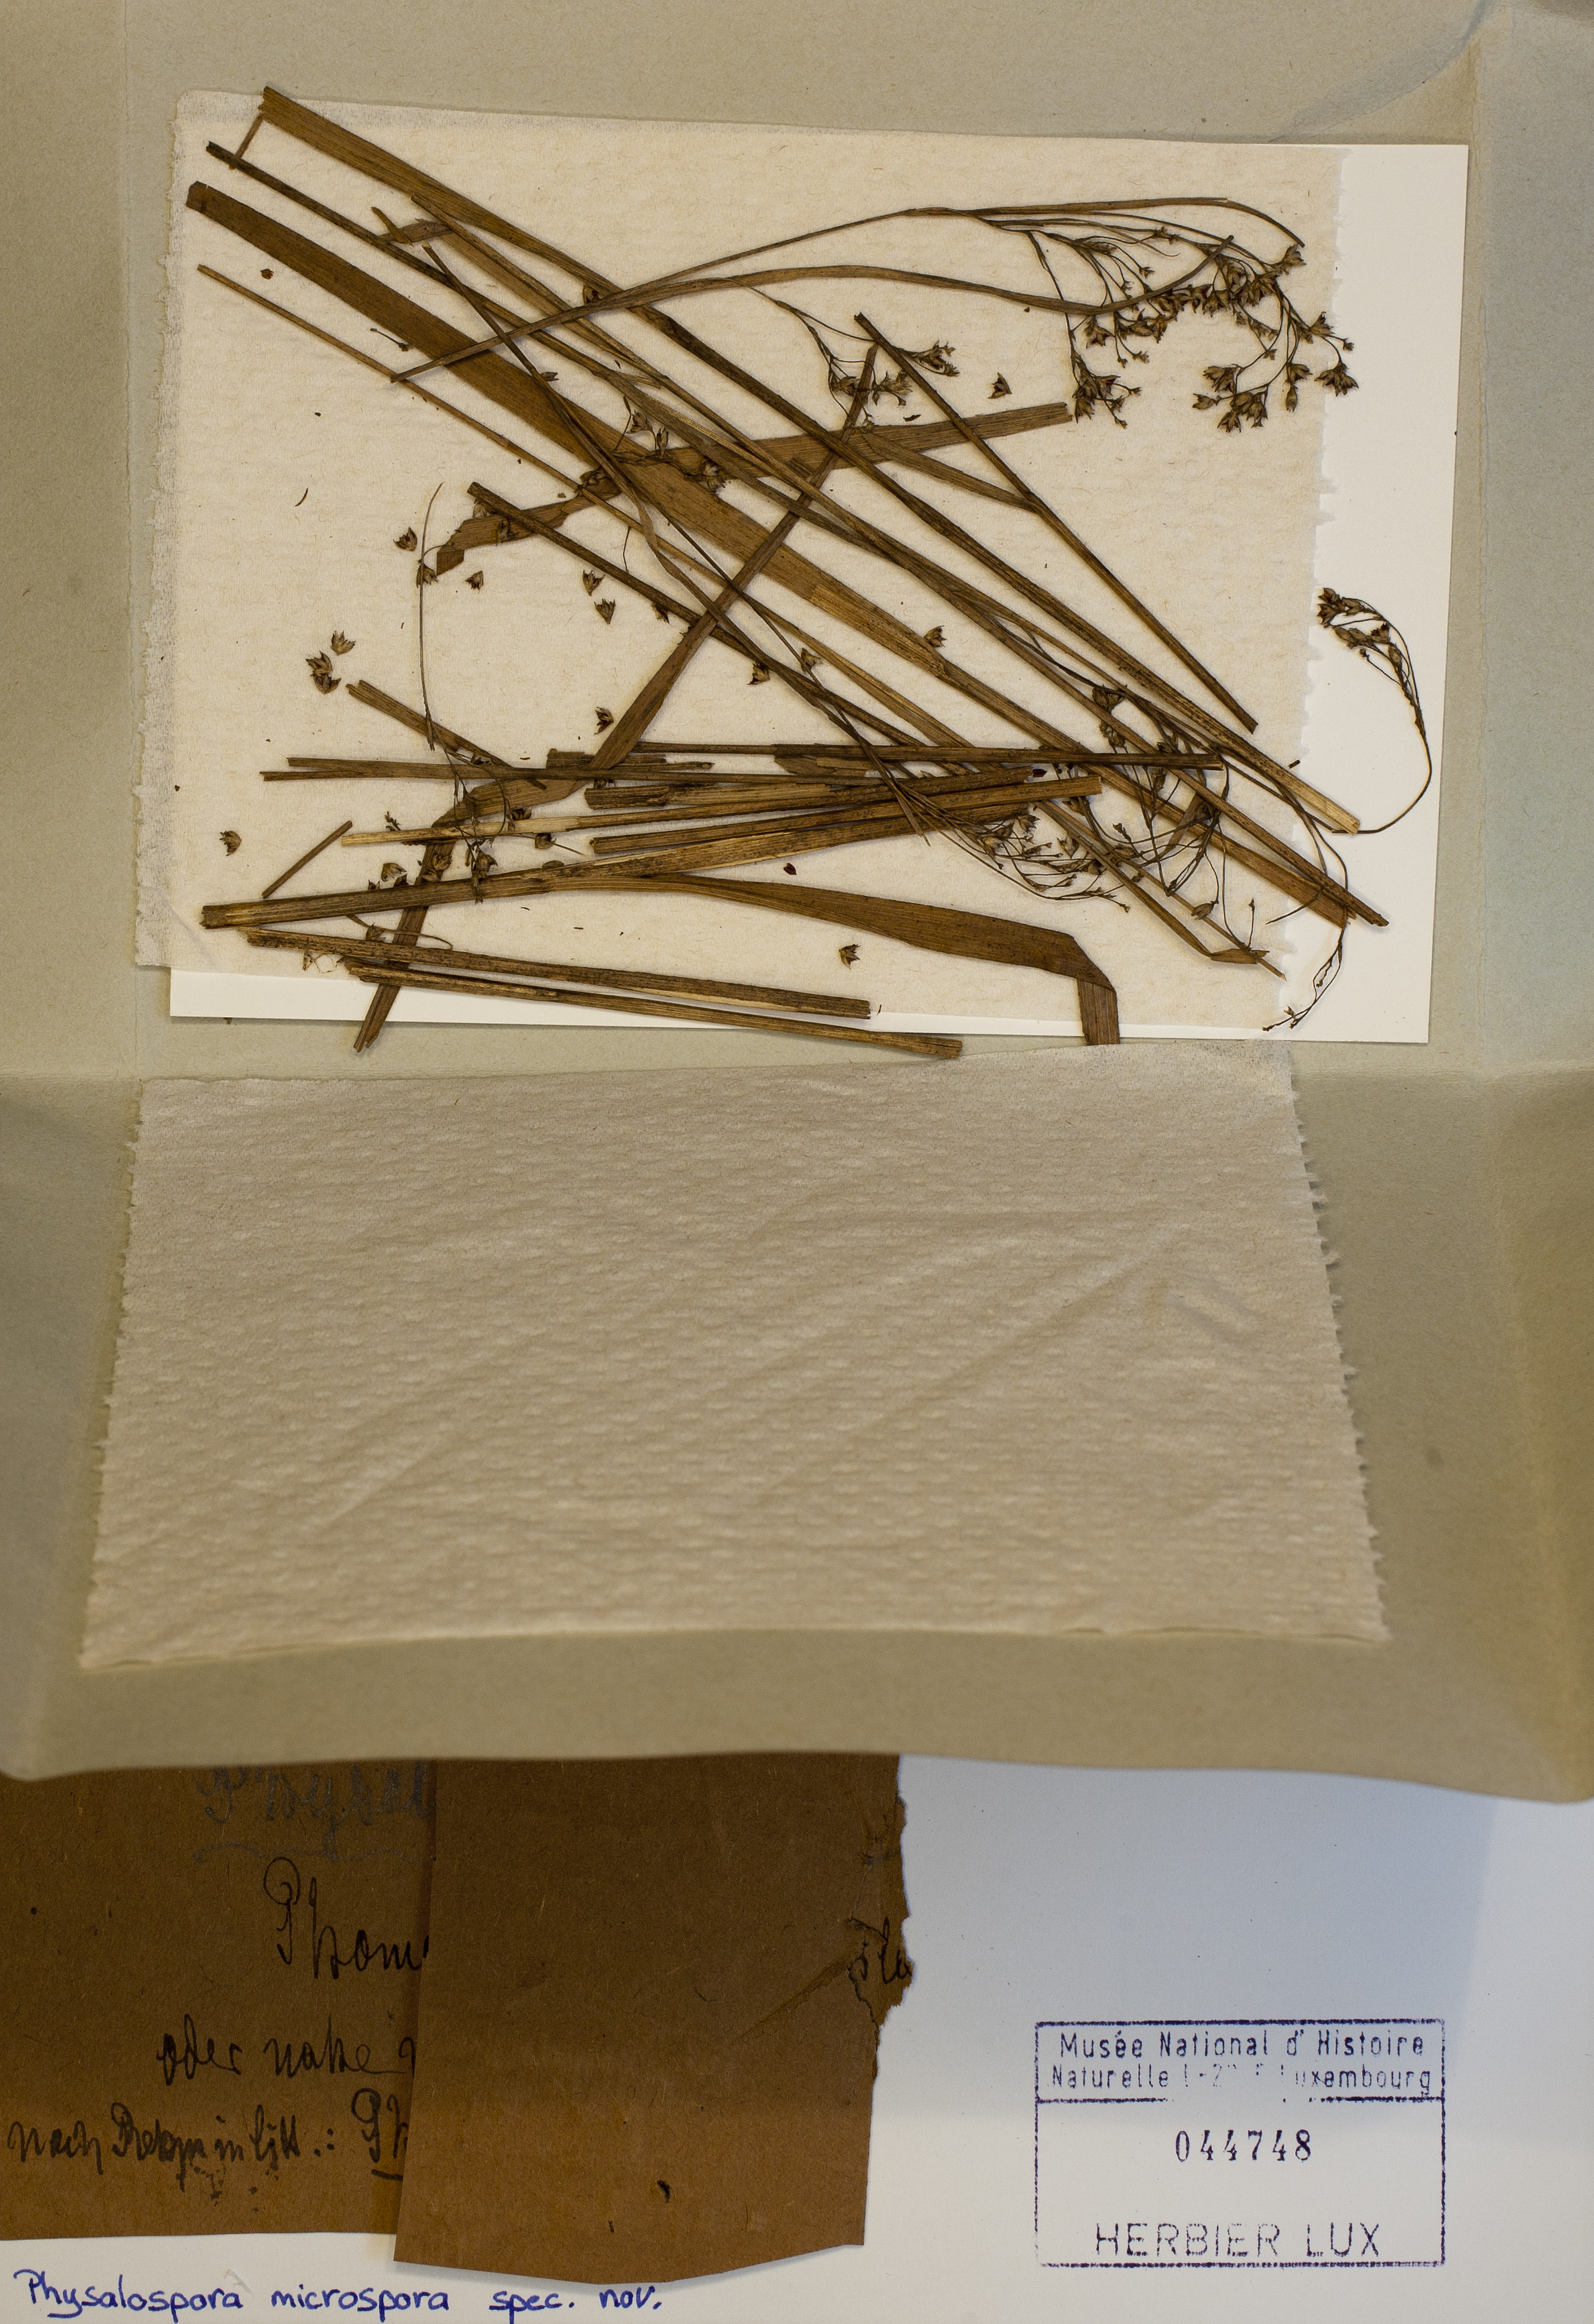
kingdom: Fungi
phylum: Ascomycota
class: Sordariomycetes
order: Xylariales
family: Hyponectriaceae
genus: Physalospora
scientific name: Physalospora microspora
